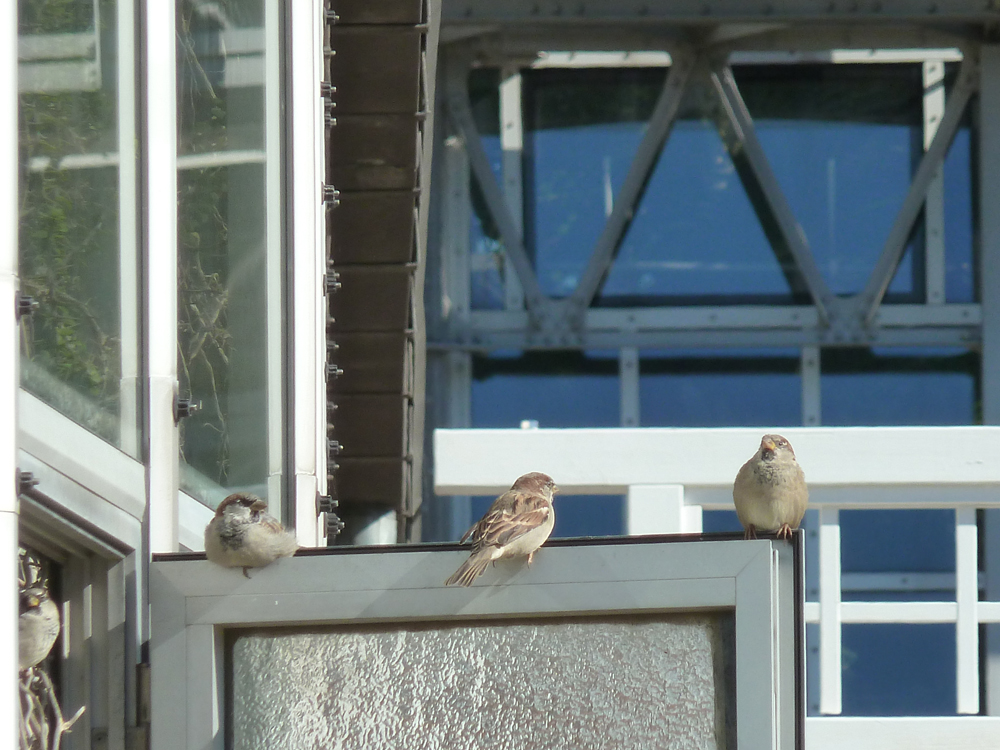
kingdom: Animalia
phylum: Chordata
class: Aves
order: Passeriformes
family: Passeridae
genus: Passer
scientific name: Passer domesticus
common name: House sparrow
